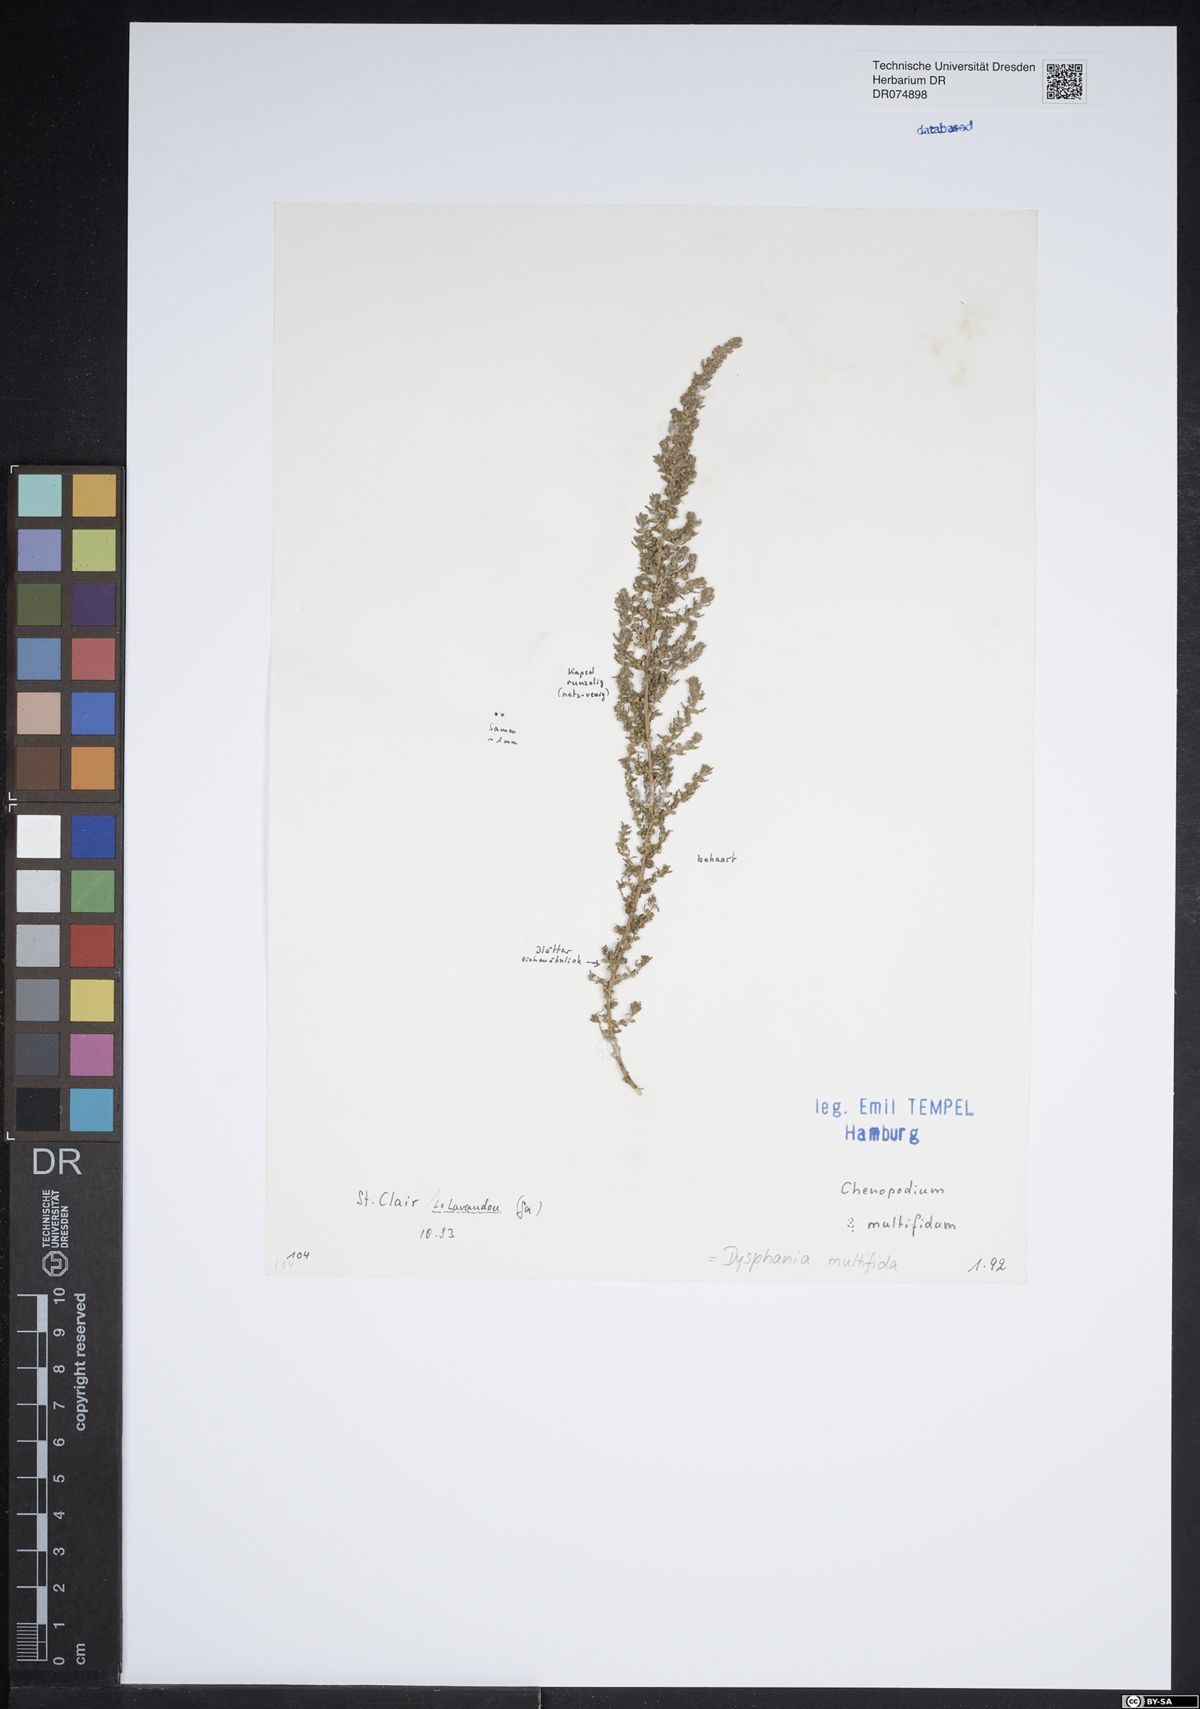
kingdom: Plantae
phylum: Tracheophyta
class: Magnoliopsida
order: Caryophyllales
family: Amaranthaceae
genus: Dysphania
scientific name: Dysphania multifida
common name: Cutleaf goosefoot
